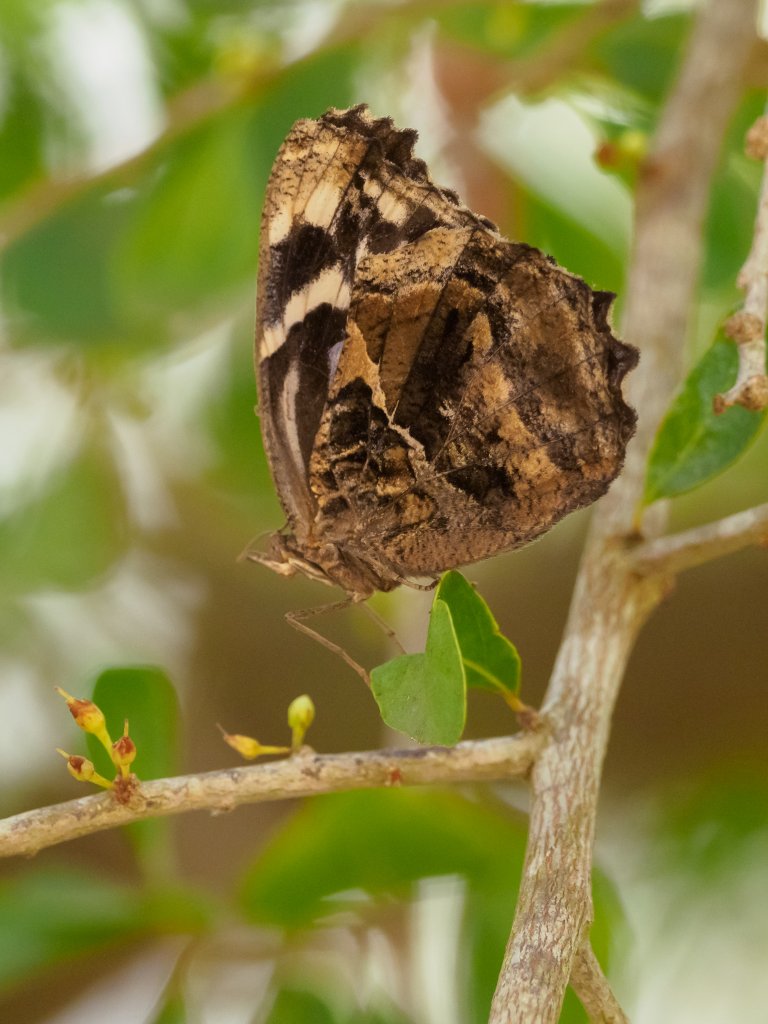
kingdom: Animalia
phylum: Arthropoda
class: Insecta
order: Lepidoptera
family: Nymphalidae
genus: Myscelia
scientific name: Myscelia ethusa
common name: Mexican Bluewing
